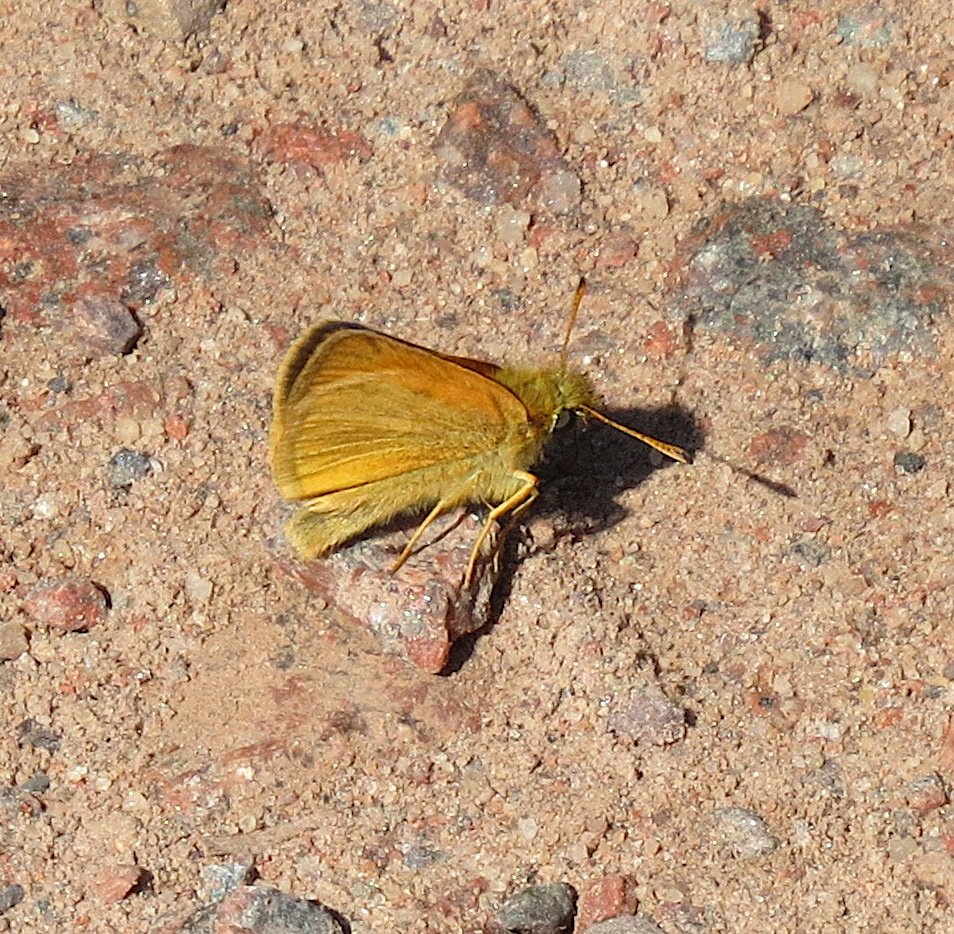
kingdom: Animalia
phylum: Arthropoda
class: Insecta
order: Lepidoptera
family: Hesperiidae
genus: Thymelicus
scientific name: Thymelicus lineola
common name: European Skipper
